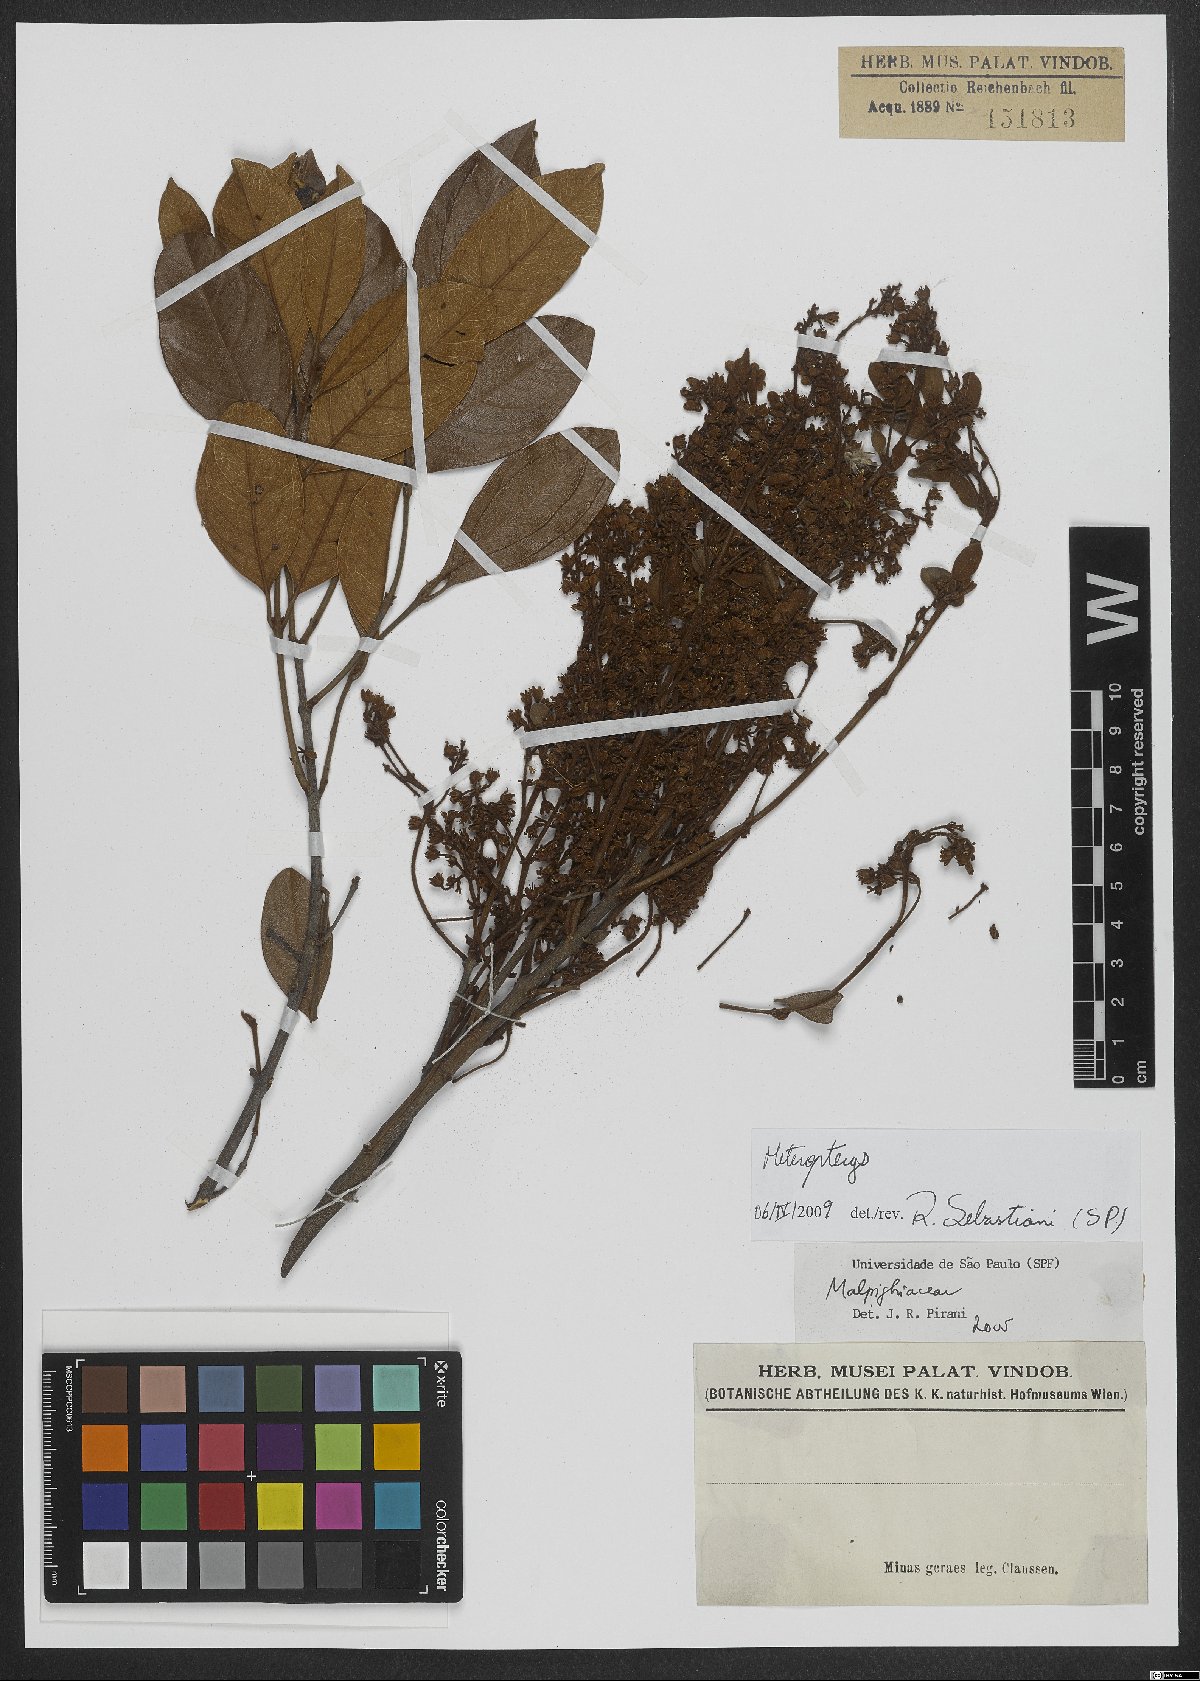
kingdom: Plantae
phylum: Tracheophyta
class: Magnoliopsida
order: Malpighiales
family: Malpighiaceae
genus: Heteropterys
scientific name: Heteropterys
